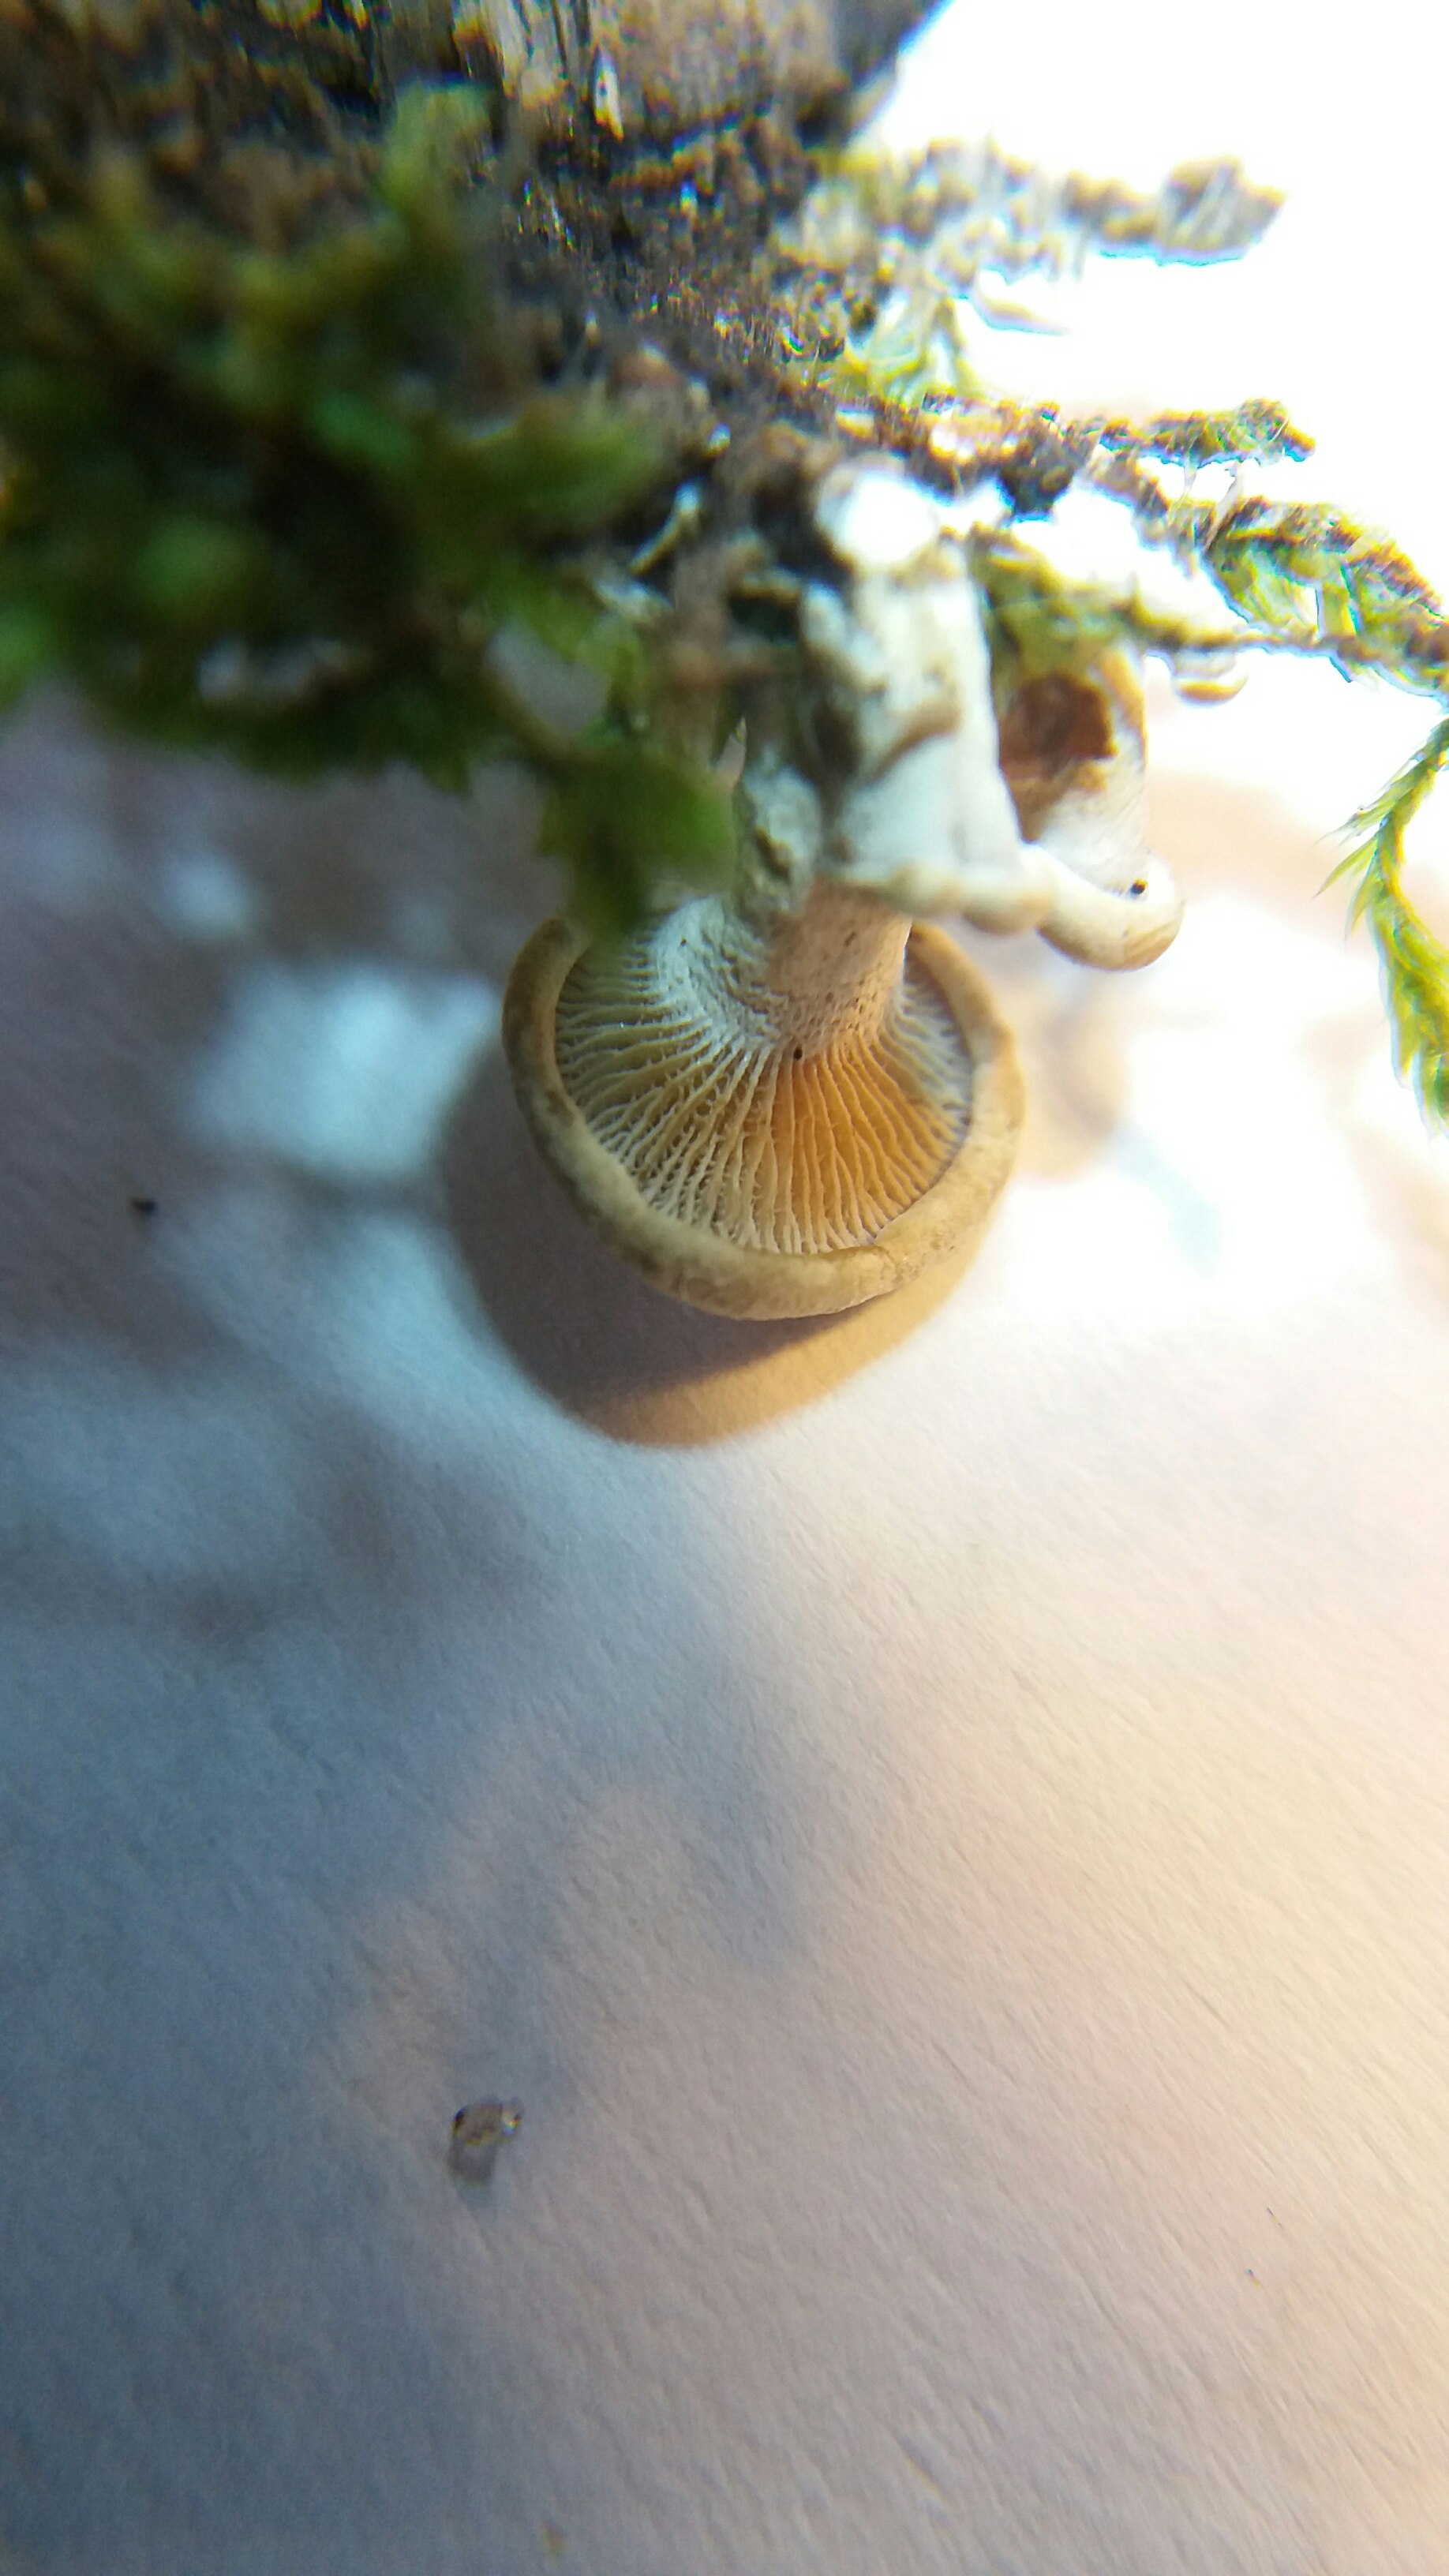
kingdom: Fungi
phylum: Basidiomycota
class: Agaricomycetes
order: Agaricales
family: Mycenaceae
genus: Panellus
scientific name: Panellus stipticus
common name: kliddet epaulethat
